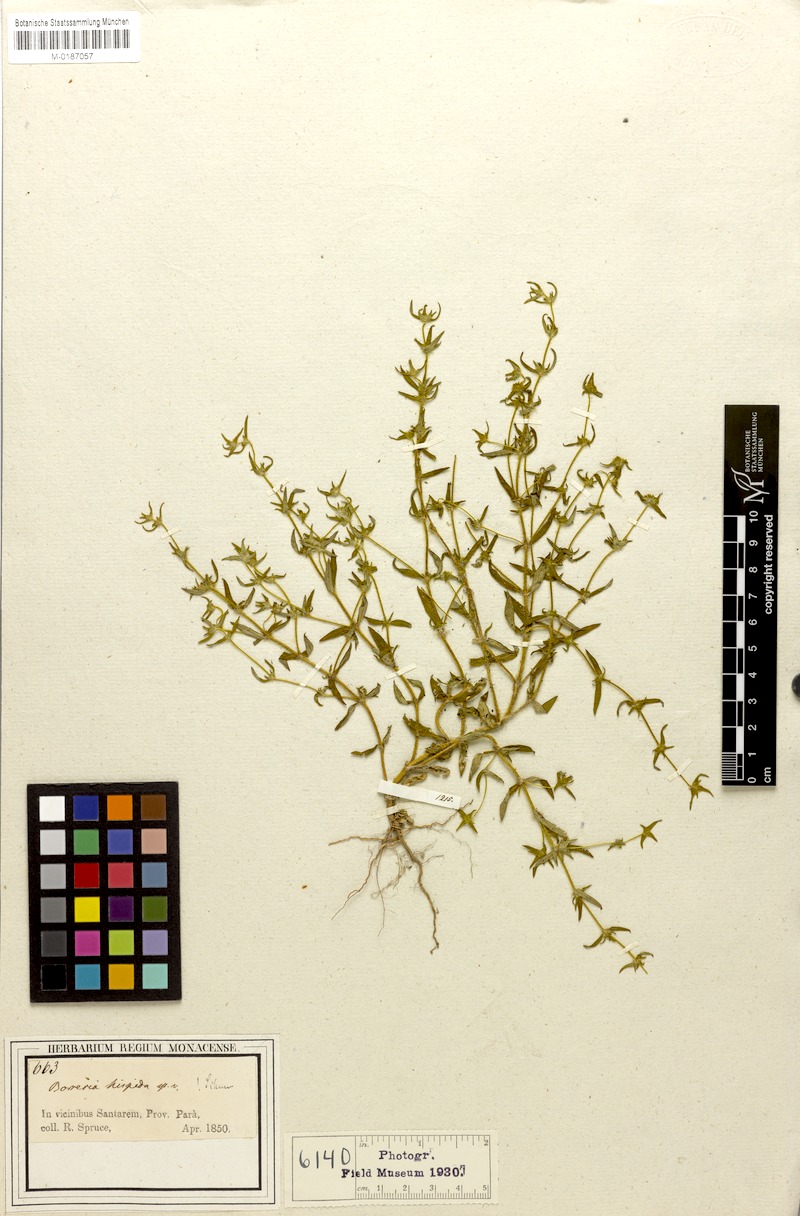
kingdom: Plantae
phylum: Tracheophyta
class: Magnoliopsida
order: Gentianales
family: Rubiaceae
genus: Spermacoce
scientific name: Spermacoce neohispida
